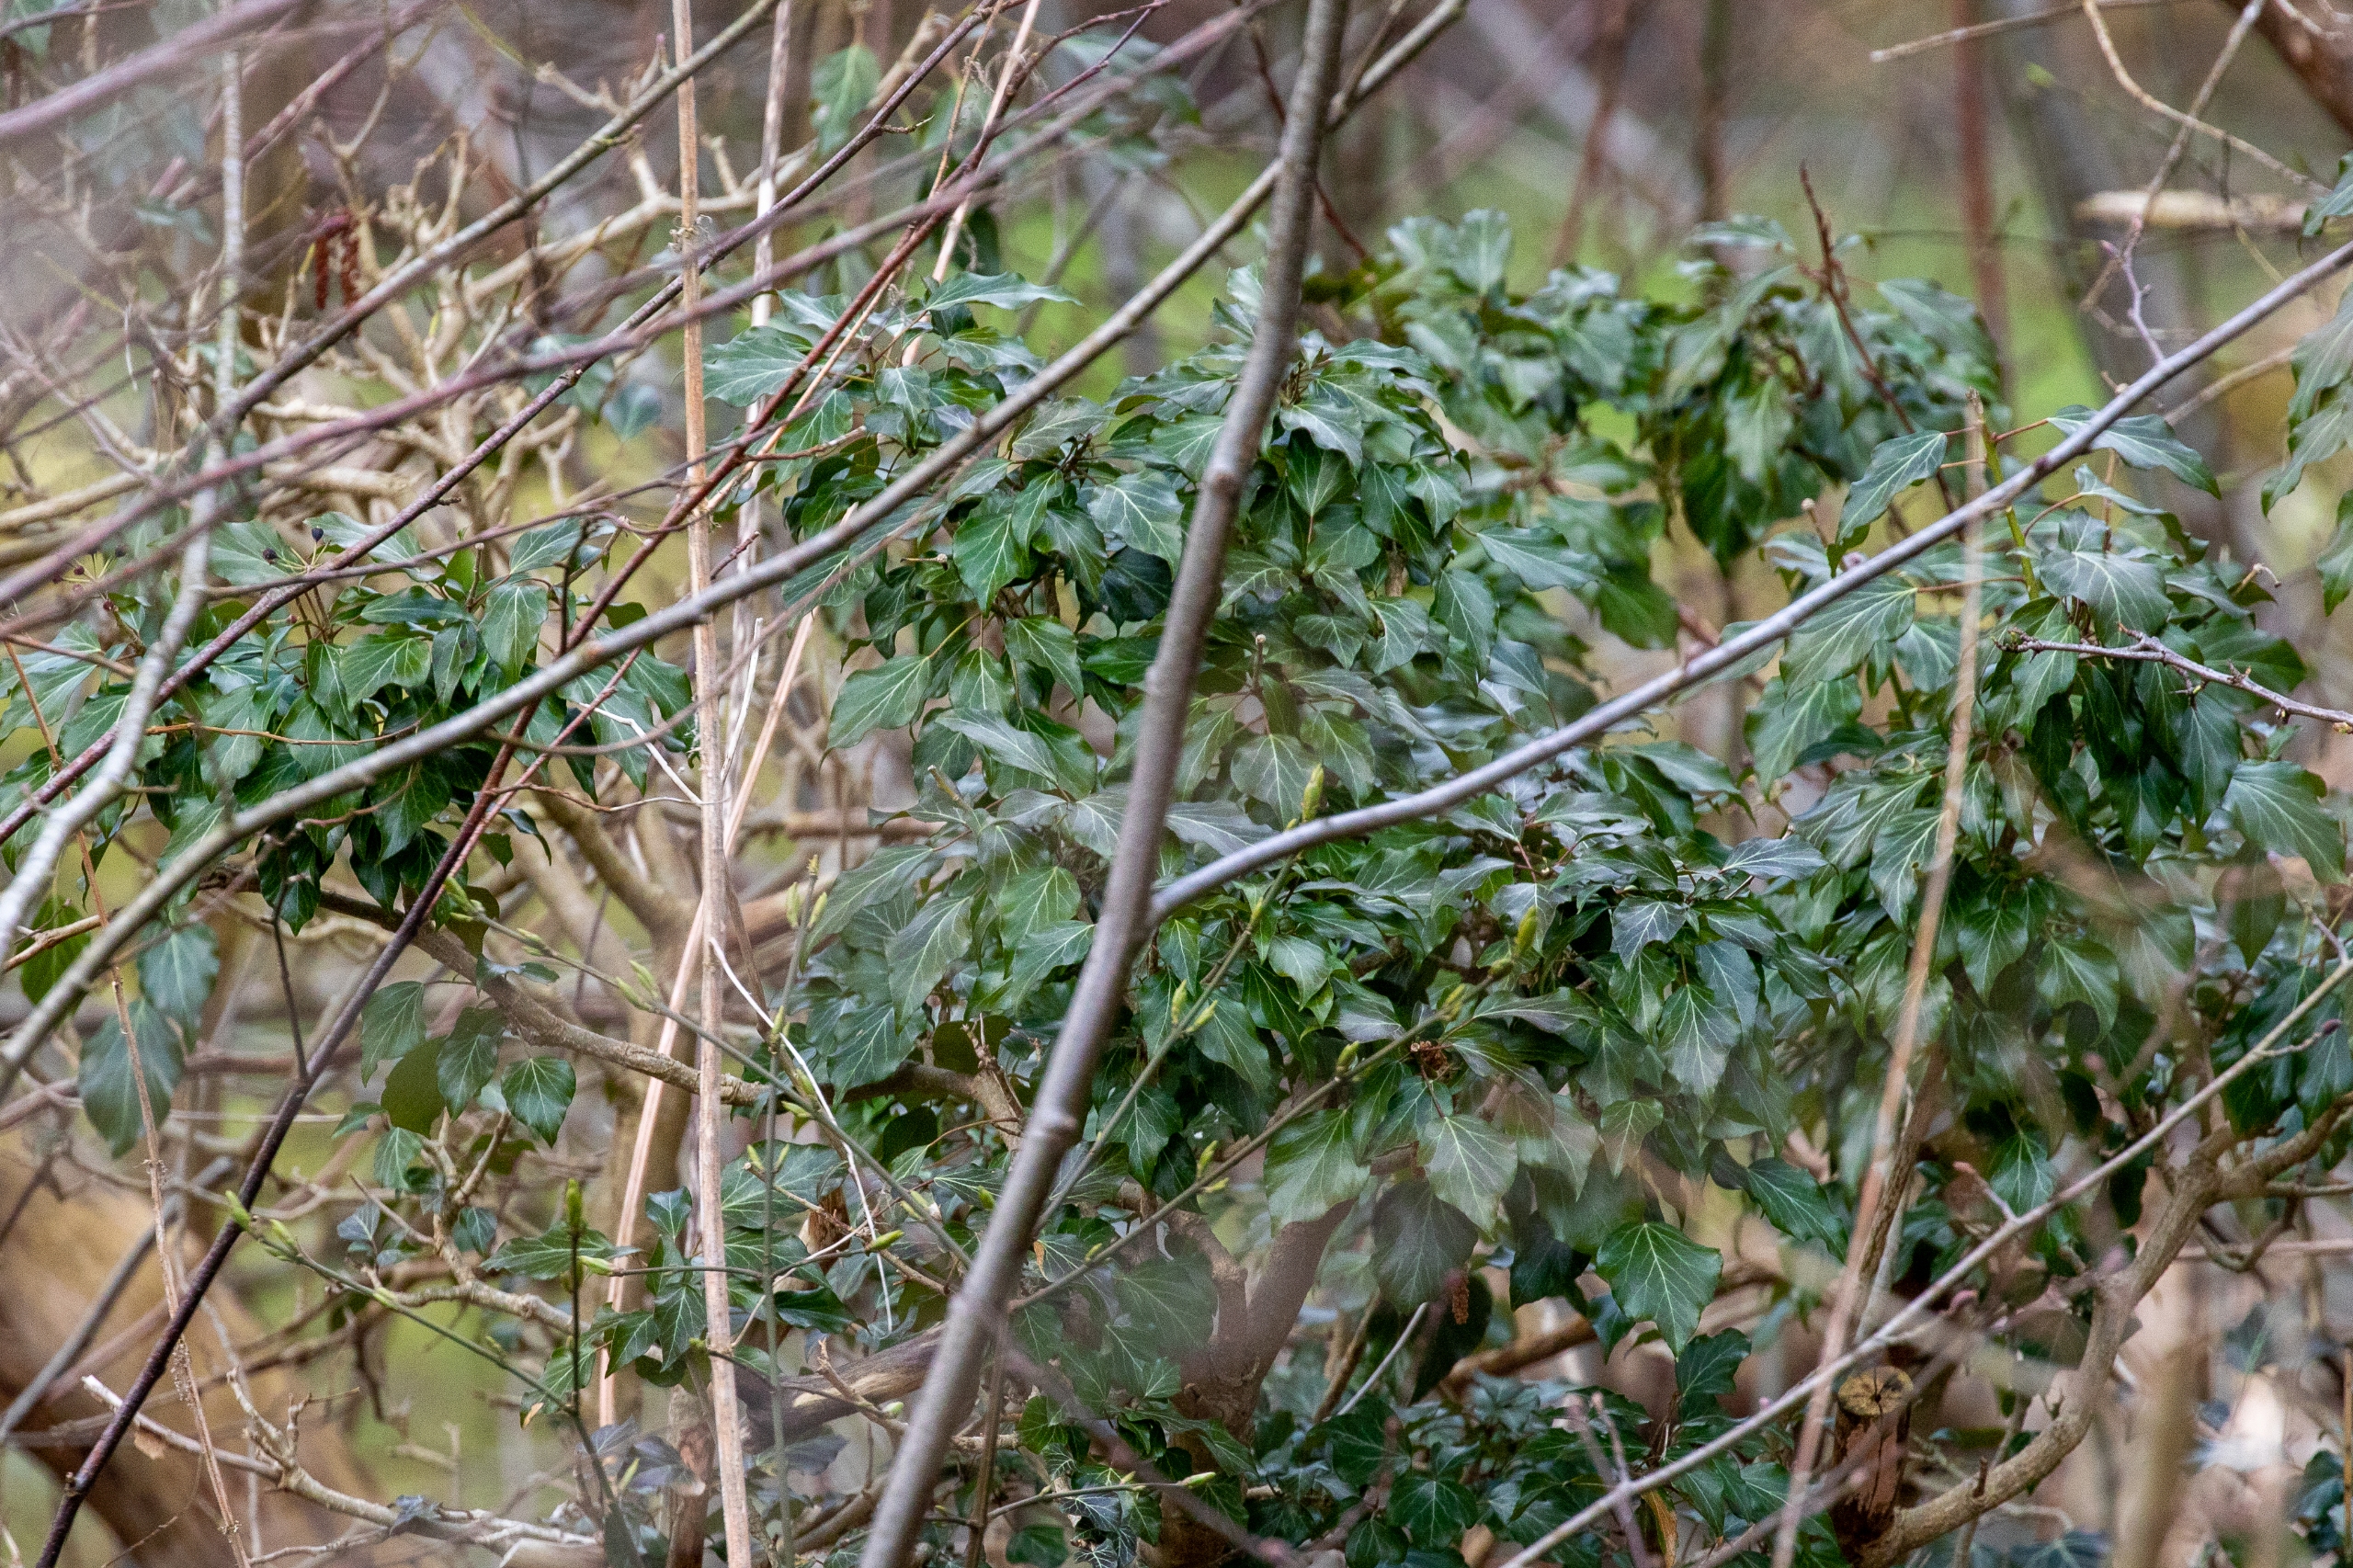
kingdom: Plantae
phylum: Tracheophyta
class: Magnoliopsida
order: Apiales
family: Araliaceae
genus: Hedera
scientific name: Hedera helix
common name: Vedbend
